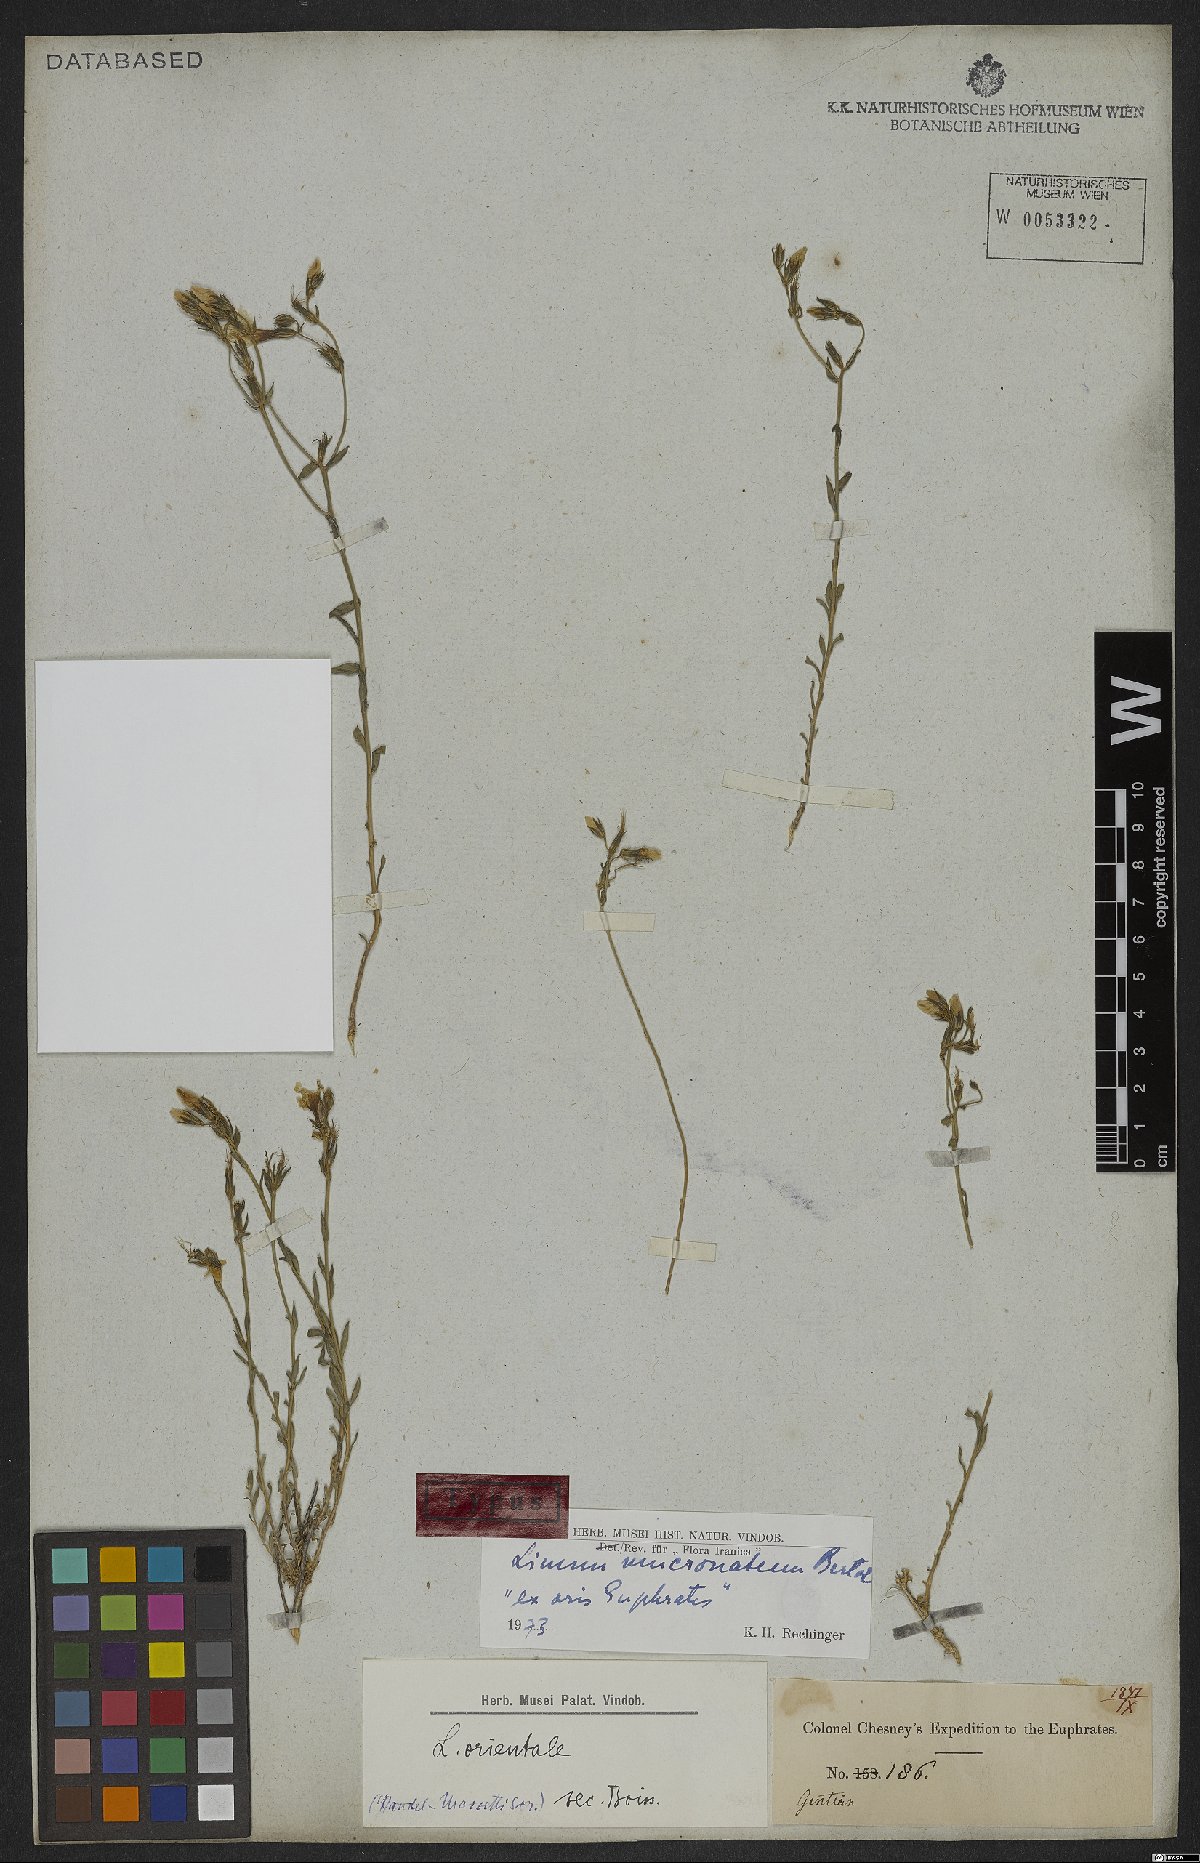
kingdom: Plantae
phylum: Tracheophyta
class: Magnoliopsida
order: Malpighiales
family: Linaceae
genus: Linum
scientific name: Linum mucronatum
